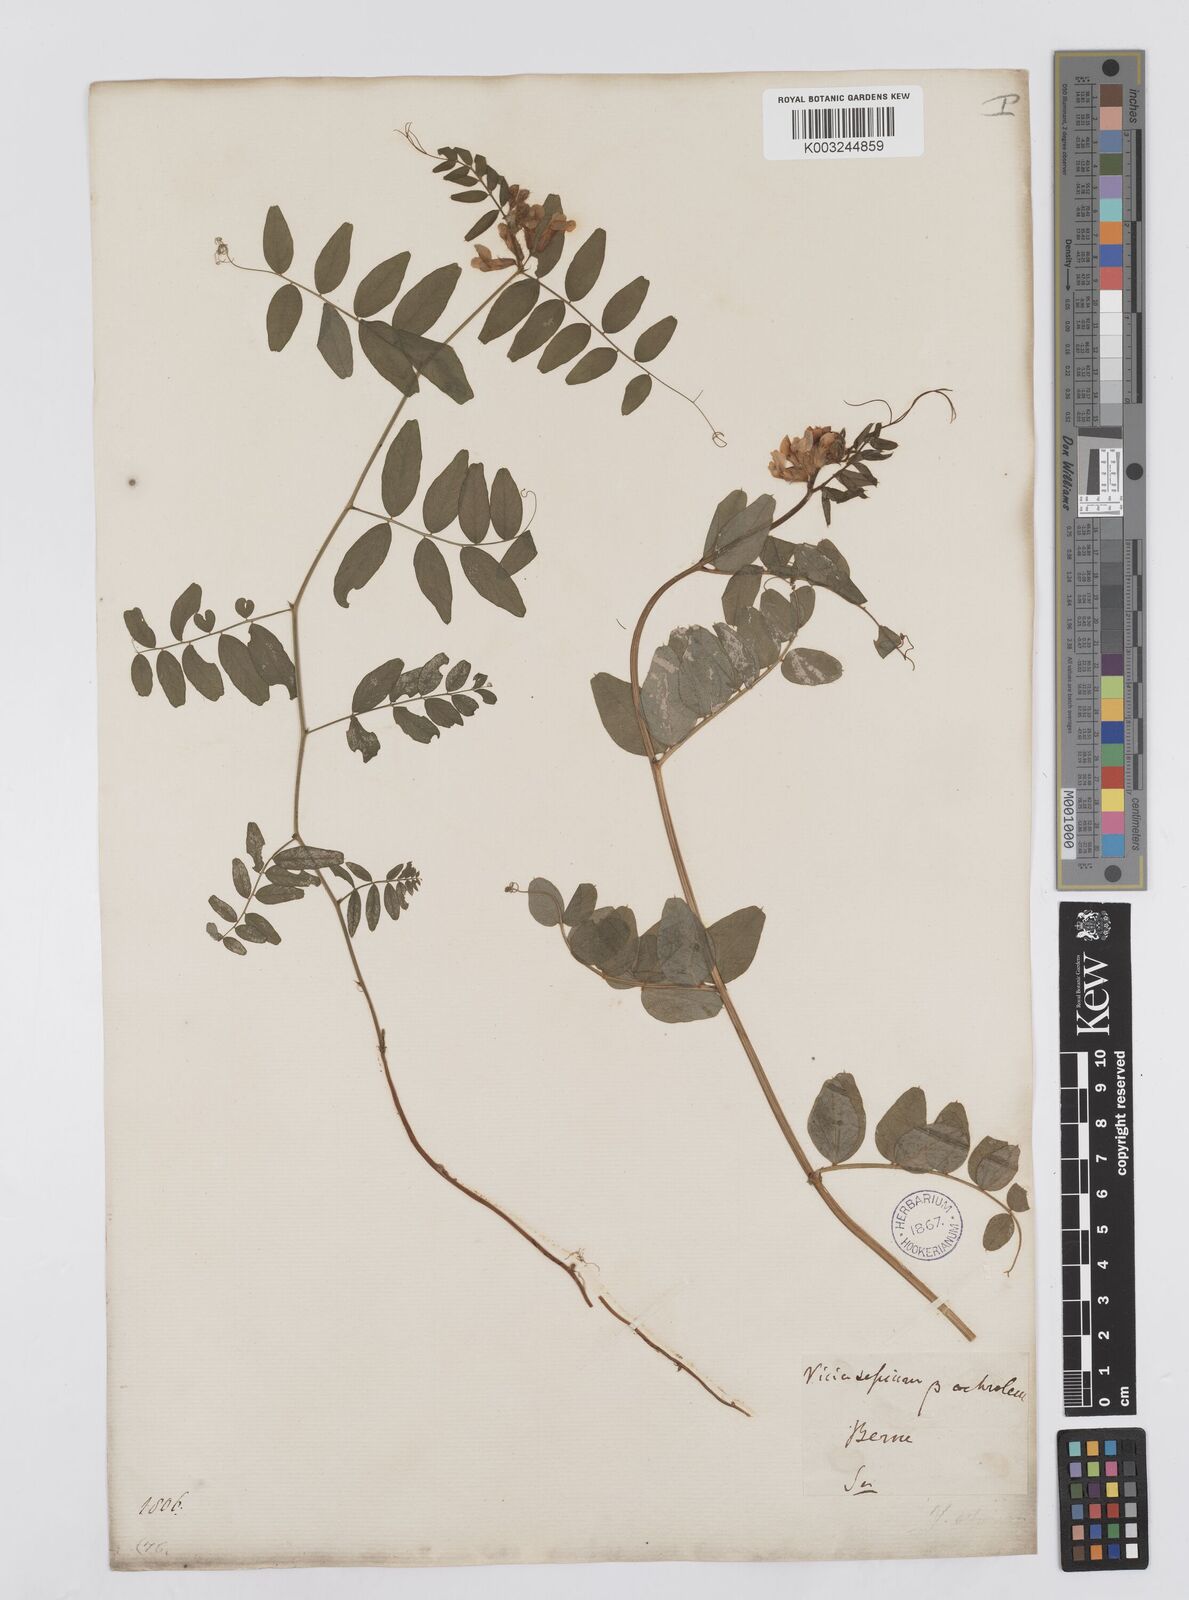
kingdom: Plantae
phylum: Tracheophyta
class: Magnoliopsida
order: Fabales
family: Fabaceae
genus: Vicia
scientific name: Vicia sepium
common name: Bush vetch
